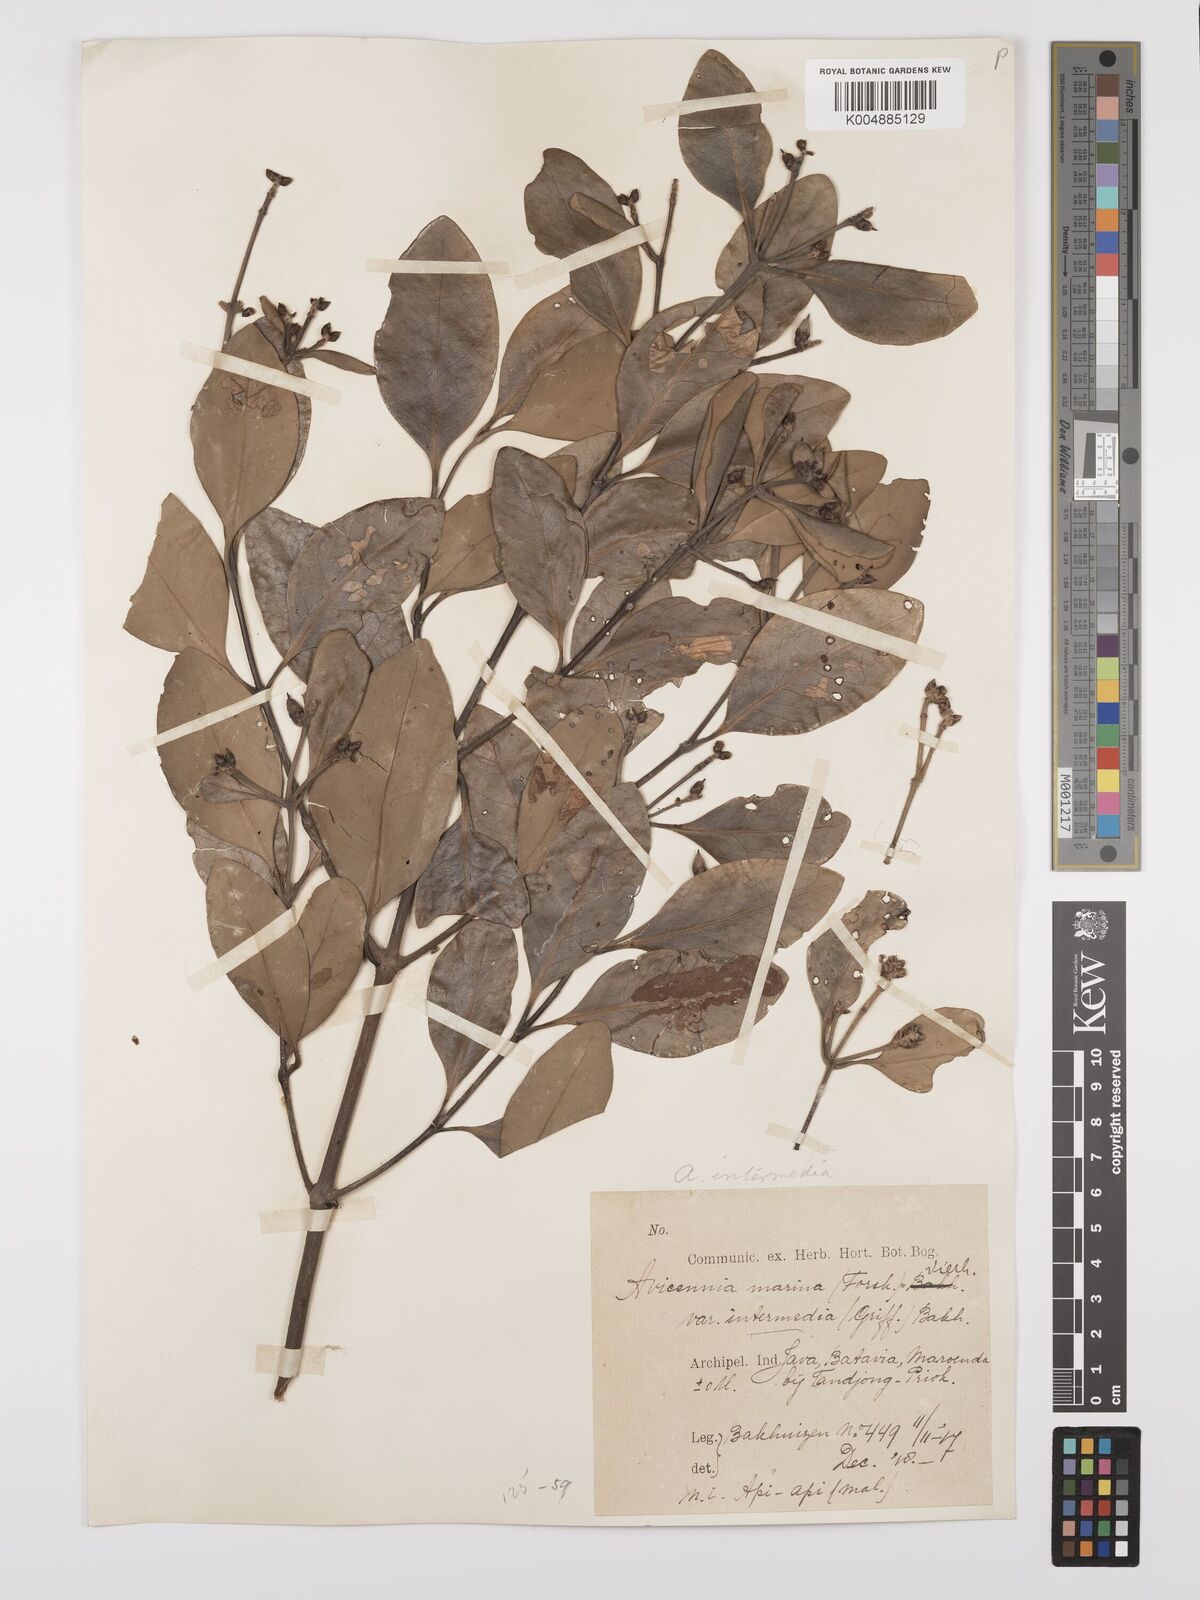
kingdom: Plantae
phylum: Tracheophyta
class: Magnoliopsida
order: Lamiales
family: Acanthaceae
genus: Avicennia
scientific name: Avicennia marina
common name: Gray mangrove
